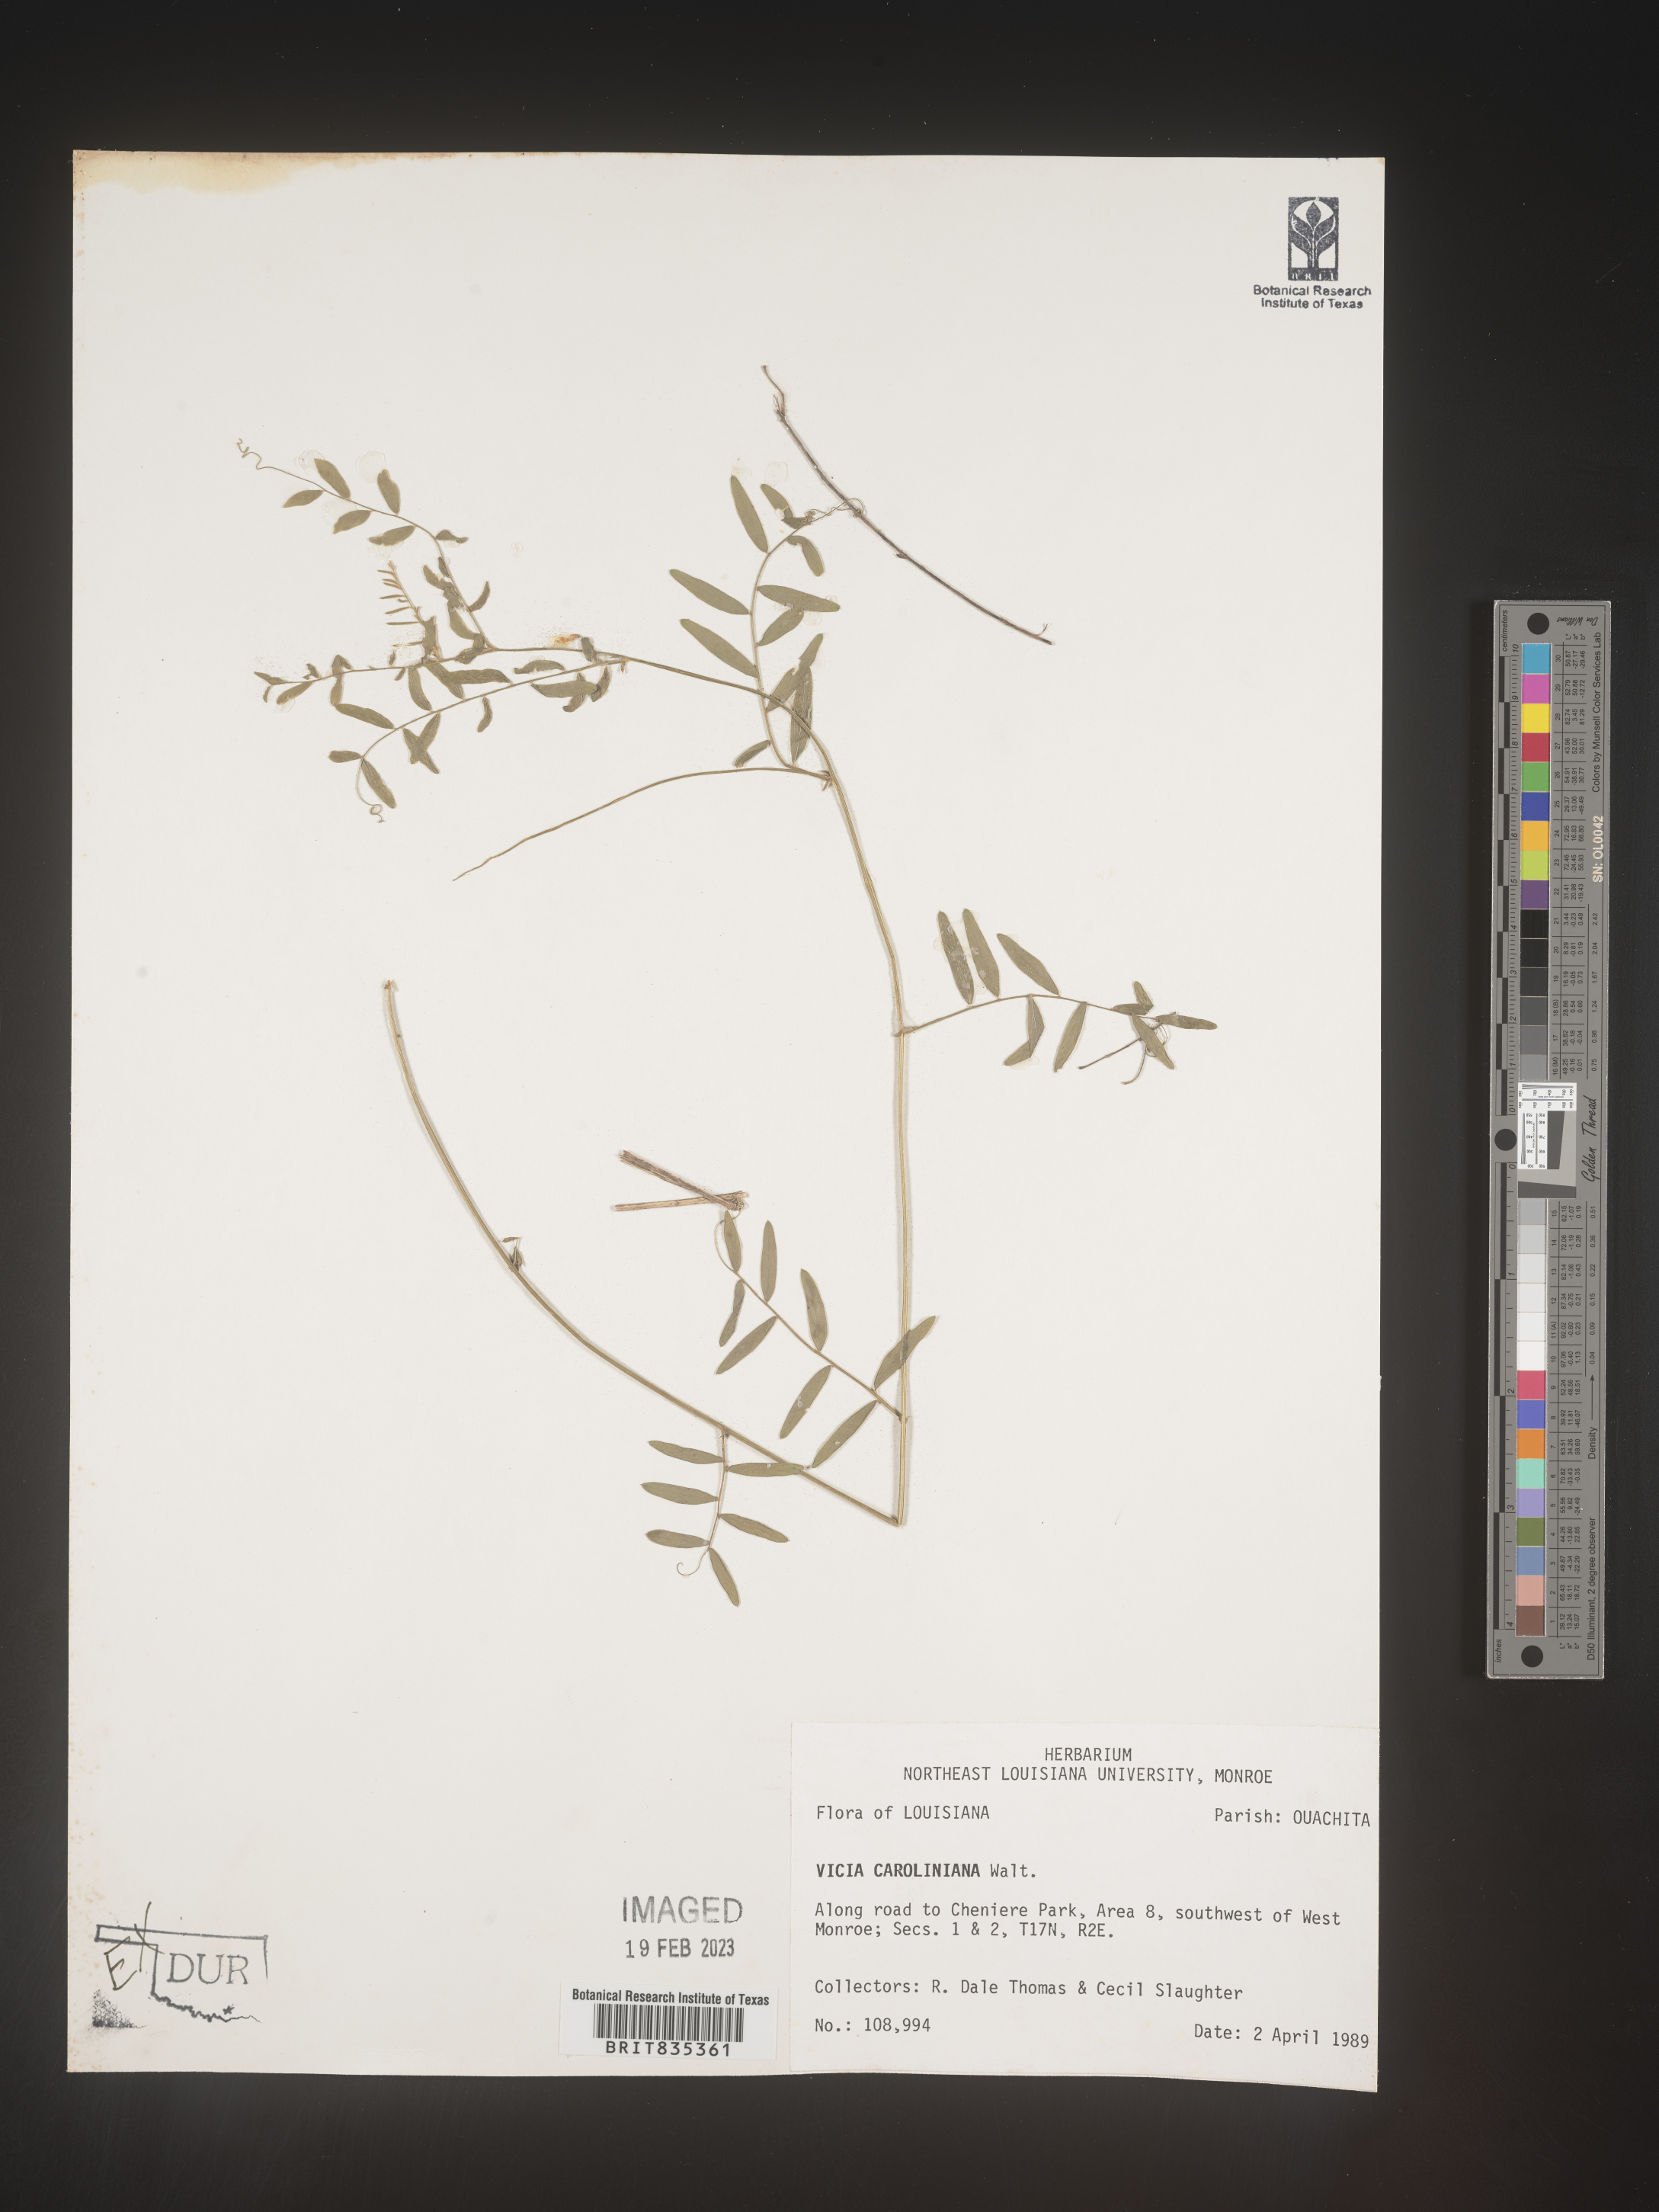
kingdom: Plantae
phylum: Tracheophyta
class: Magnoliopsida
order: Fabales
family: Fabaceae
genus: Vicia
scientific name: Vicia caroliniana
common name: Carolina vetch
